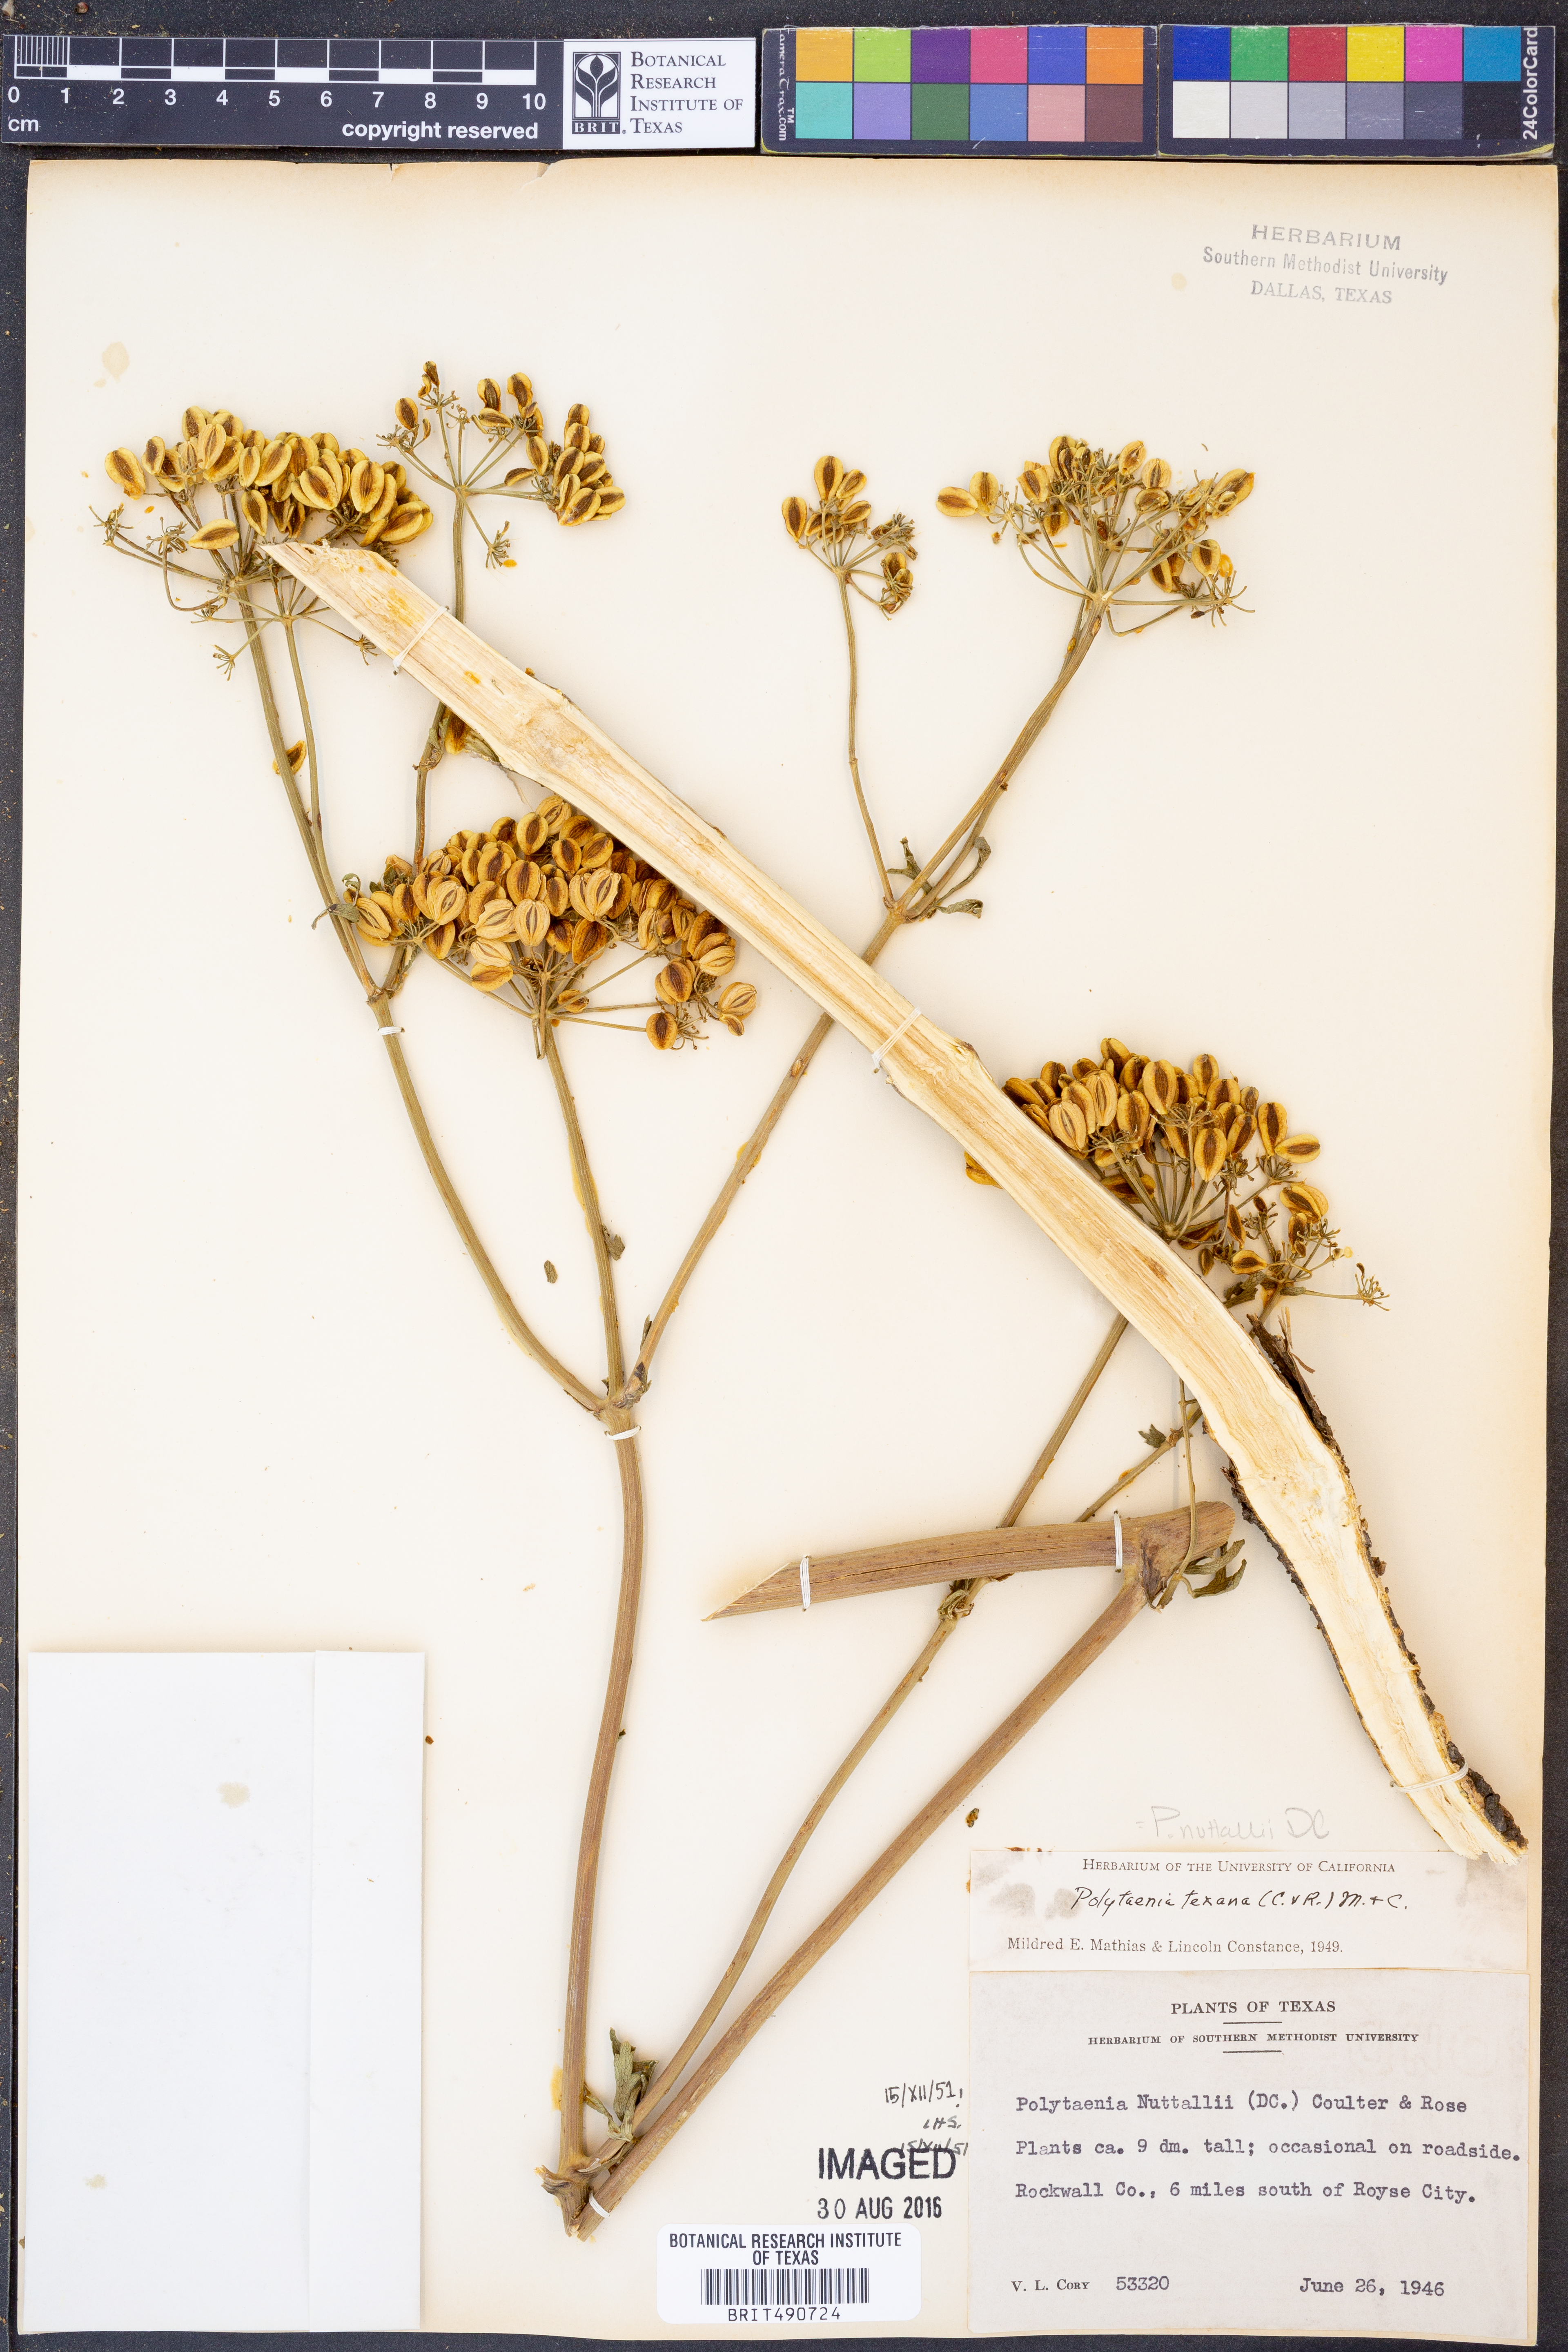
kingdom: Plantae
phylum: Tracheophyta
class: Magnoliopsida
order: Apiales
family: Apiaceae
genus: Polytaenia
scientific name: Polytaenia nuttallii
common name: Prairie-parsley
